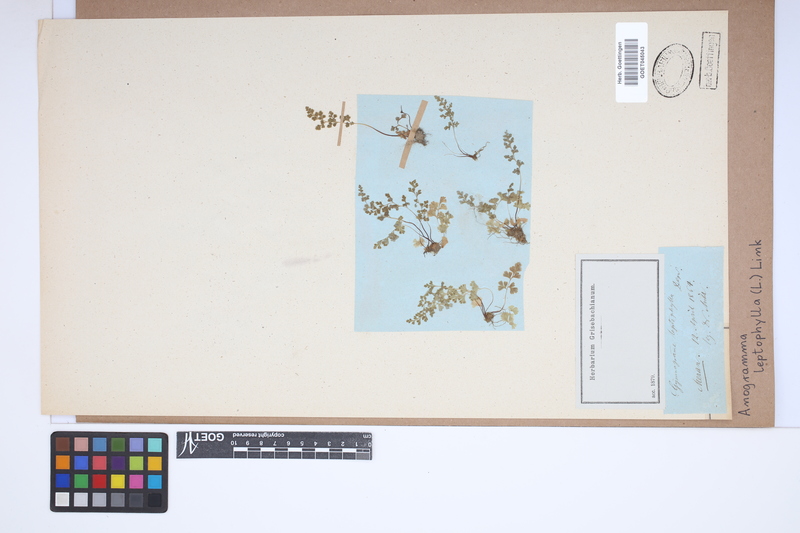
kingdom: Plantae
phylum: Tracheophyta
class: Polypodiopsida
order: Polypodiales
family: Pteridaceae
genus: Anogramma
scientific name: Anogramma leptophylla
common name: Jersey fern
